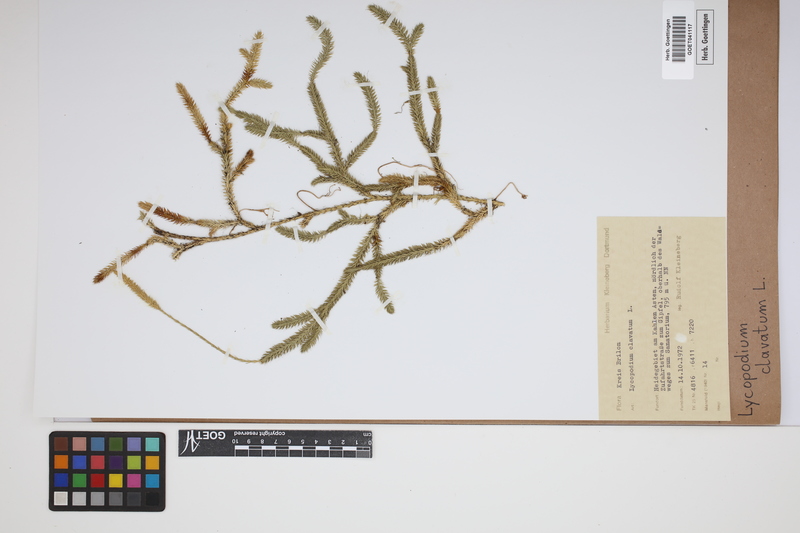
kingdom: Plantae
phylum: Tracheophyta
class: Lycopodiopsida
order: Lycopodiales
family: Lycopodiaceae
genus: Lycopodium
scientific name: Lycopodium clavatum
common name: Stag's-horn clubmoss
